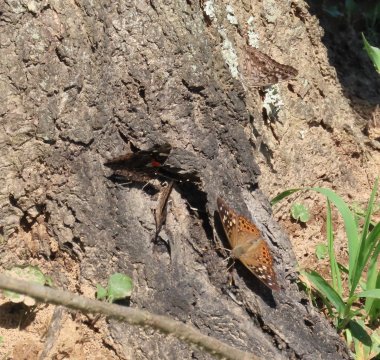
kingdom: Animalia
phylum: Arthropoda
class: Insecta
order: Lepidoptera
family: Nymphalidae
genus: Asterocampa
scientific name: Asterocampa celtis
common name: Hackberry Emperor
